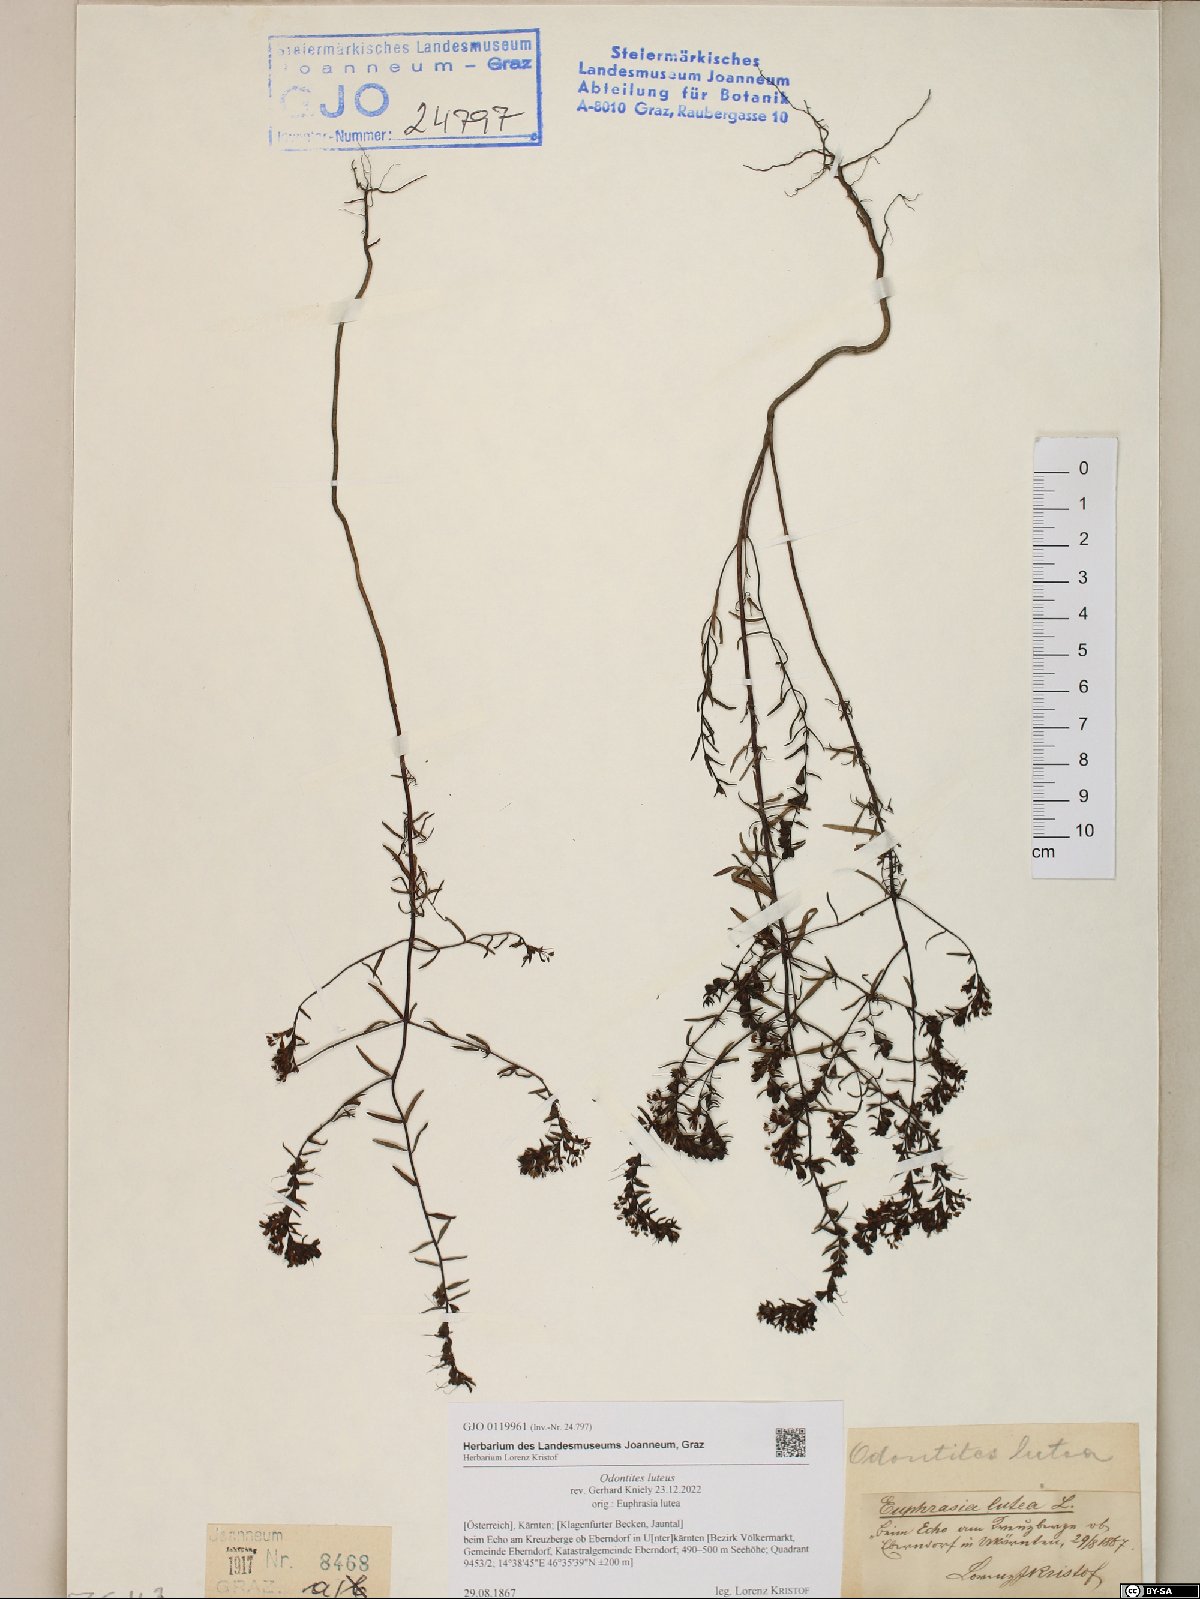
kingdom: Plantae
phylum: Tracheophyta
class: Magnoliopsida
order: Lamiales
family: Orobanchaceae
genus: Odontites
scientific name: Odontites luteus
